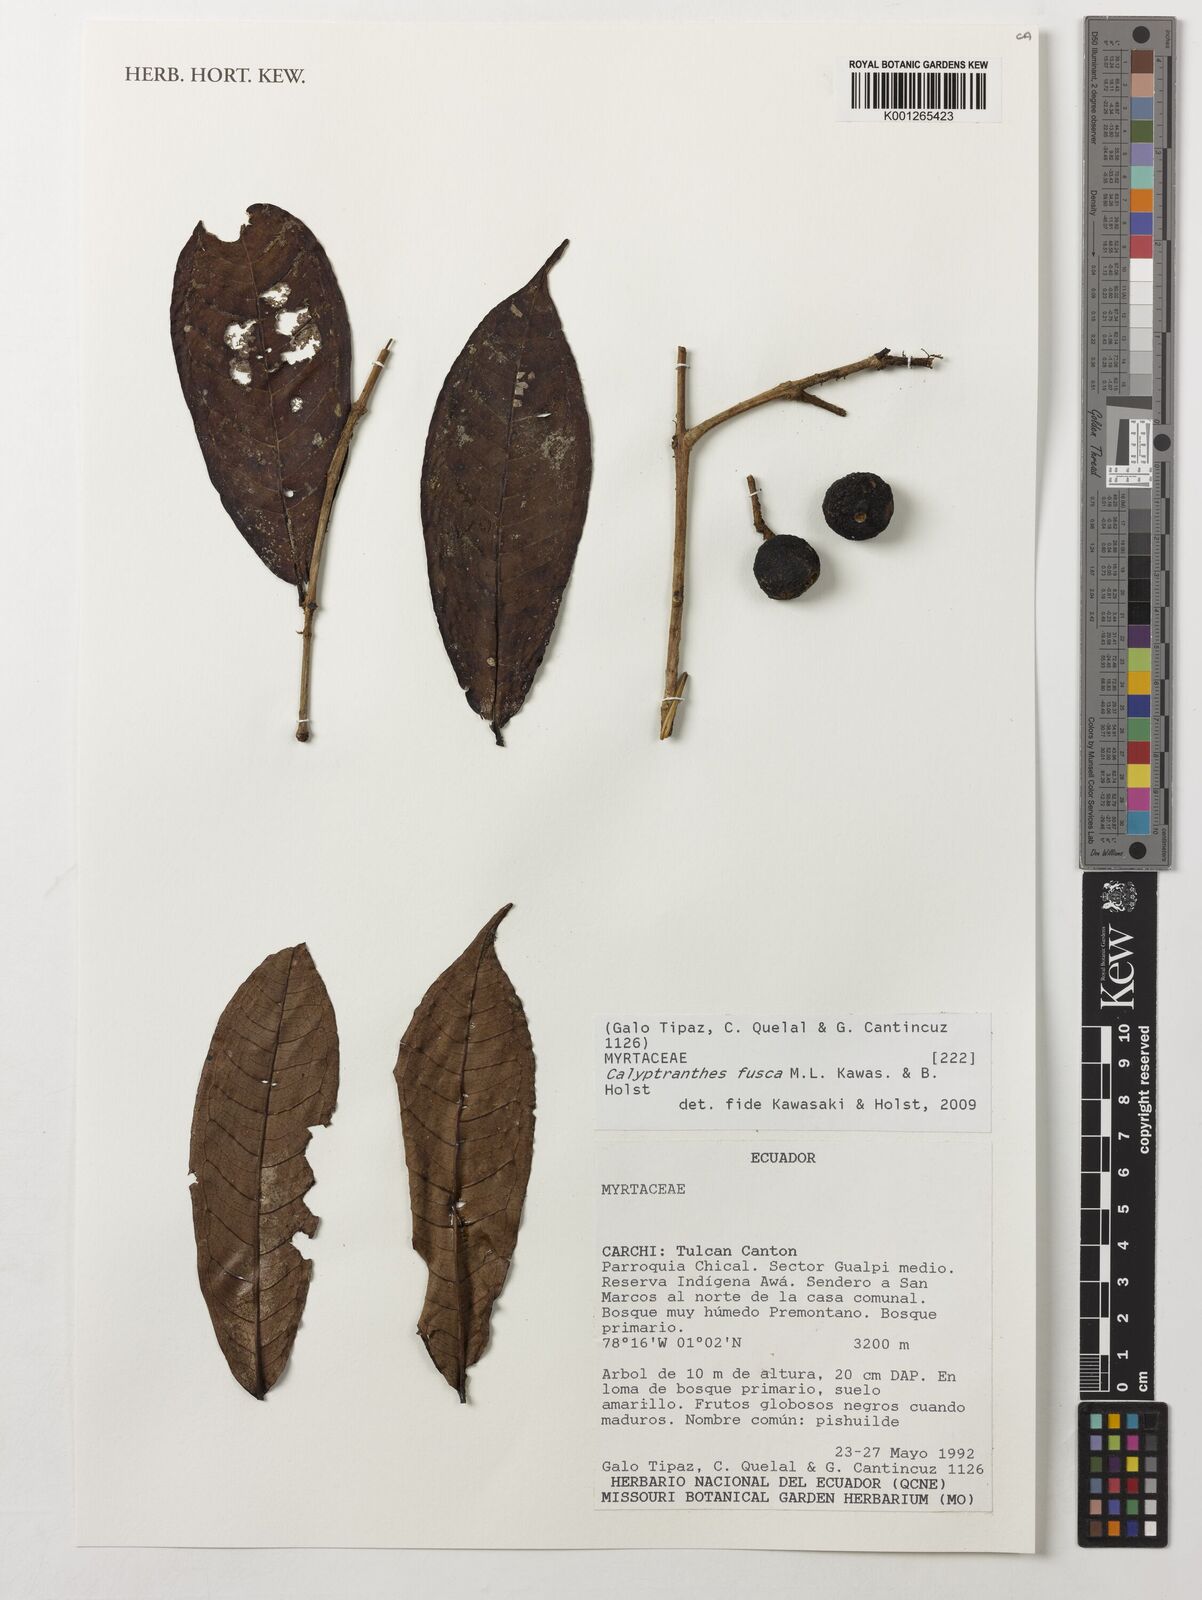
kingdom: Plantae
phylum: Tracheophyta
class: Magnoliopsida
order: Myrtales
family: Myrtaceae
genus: Myrcia
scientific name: Myrcia neofusca
